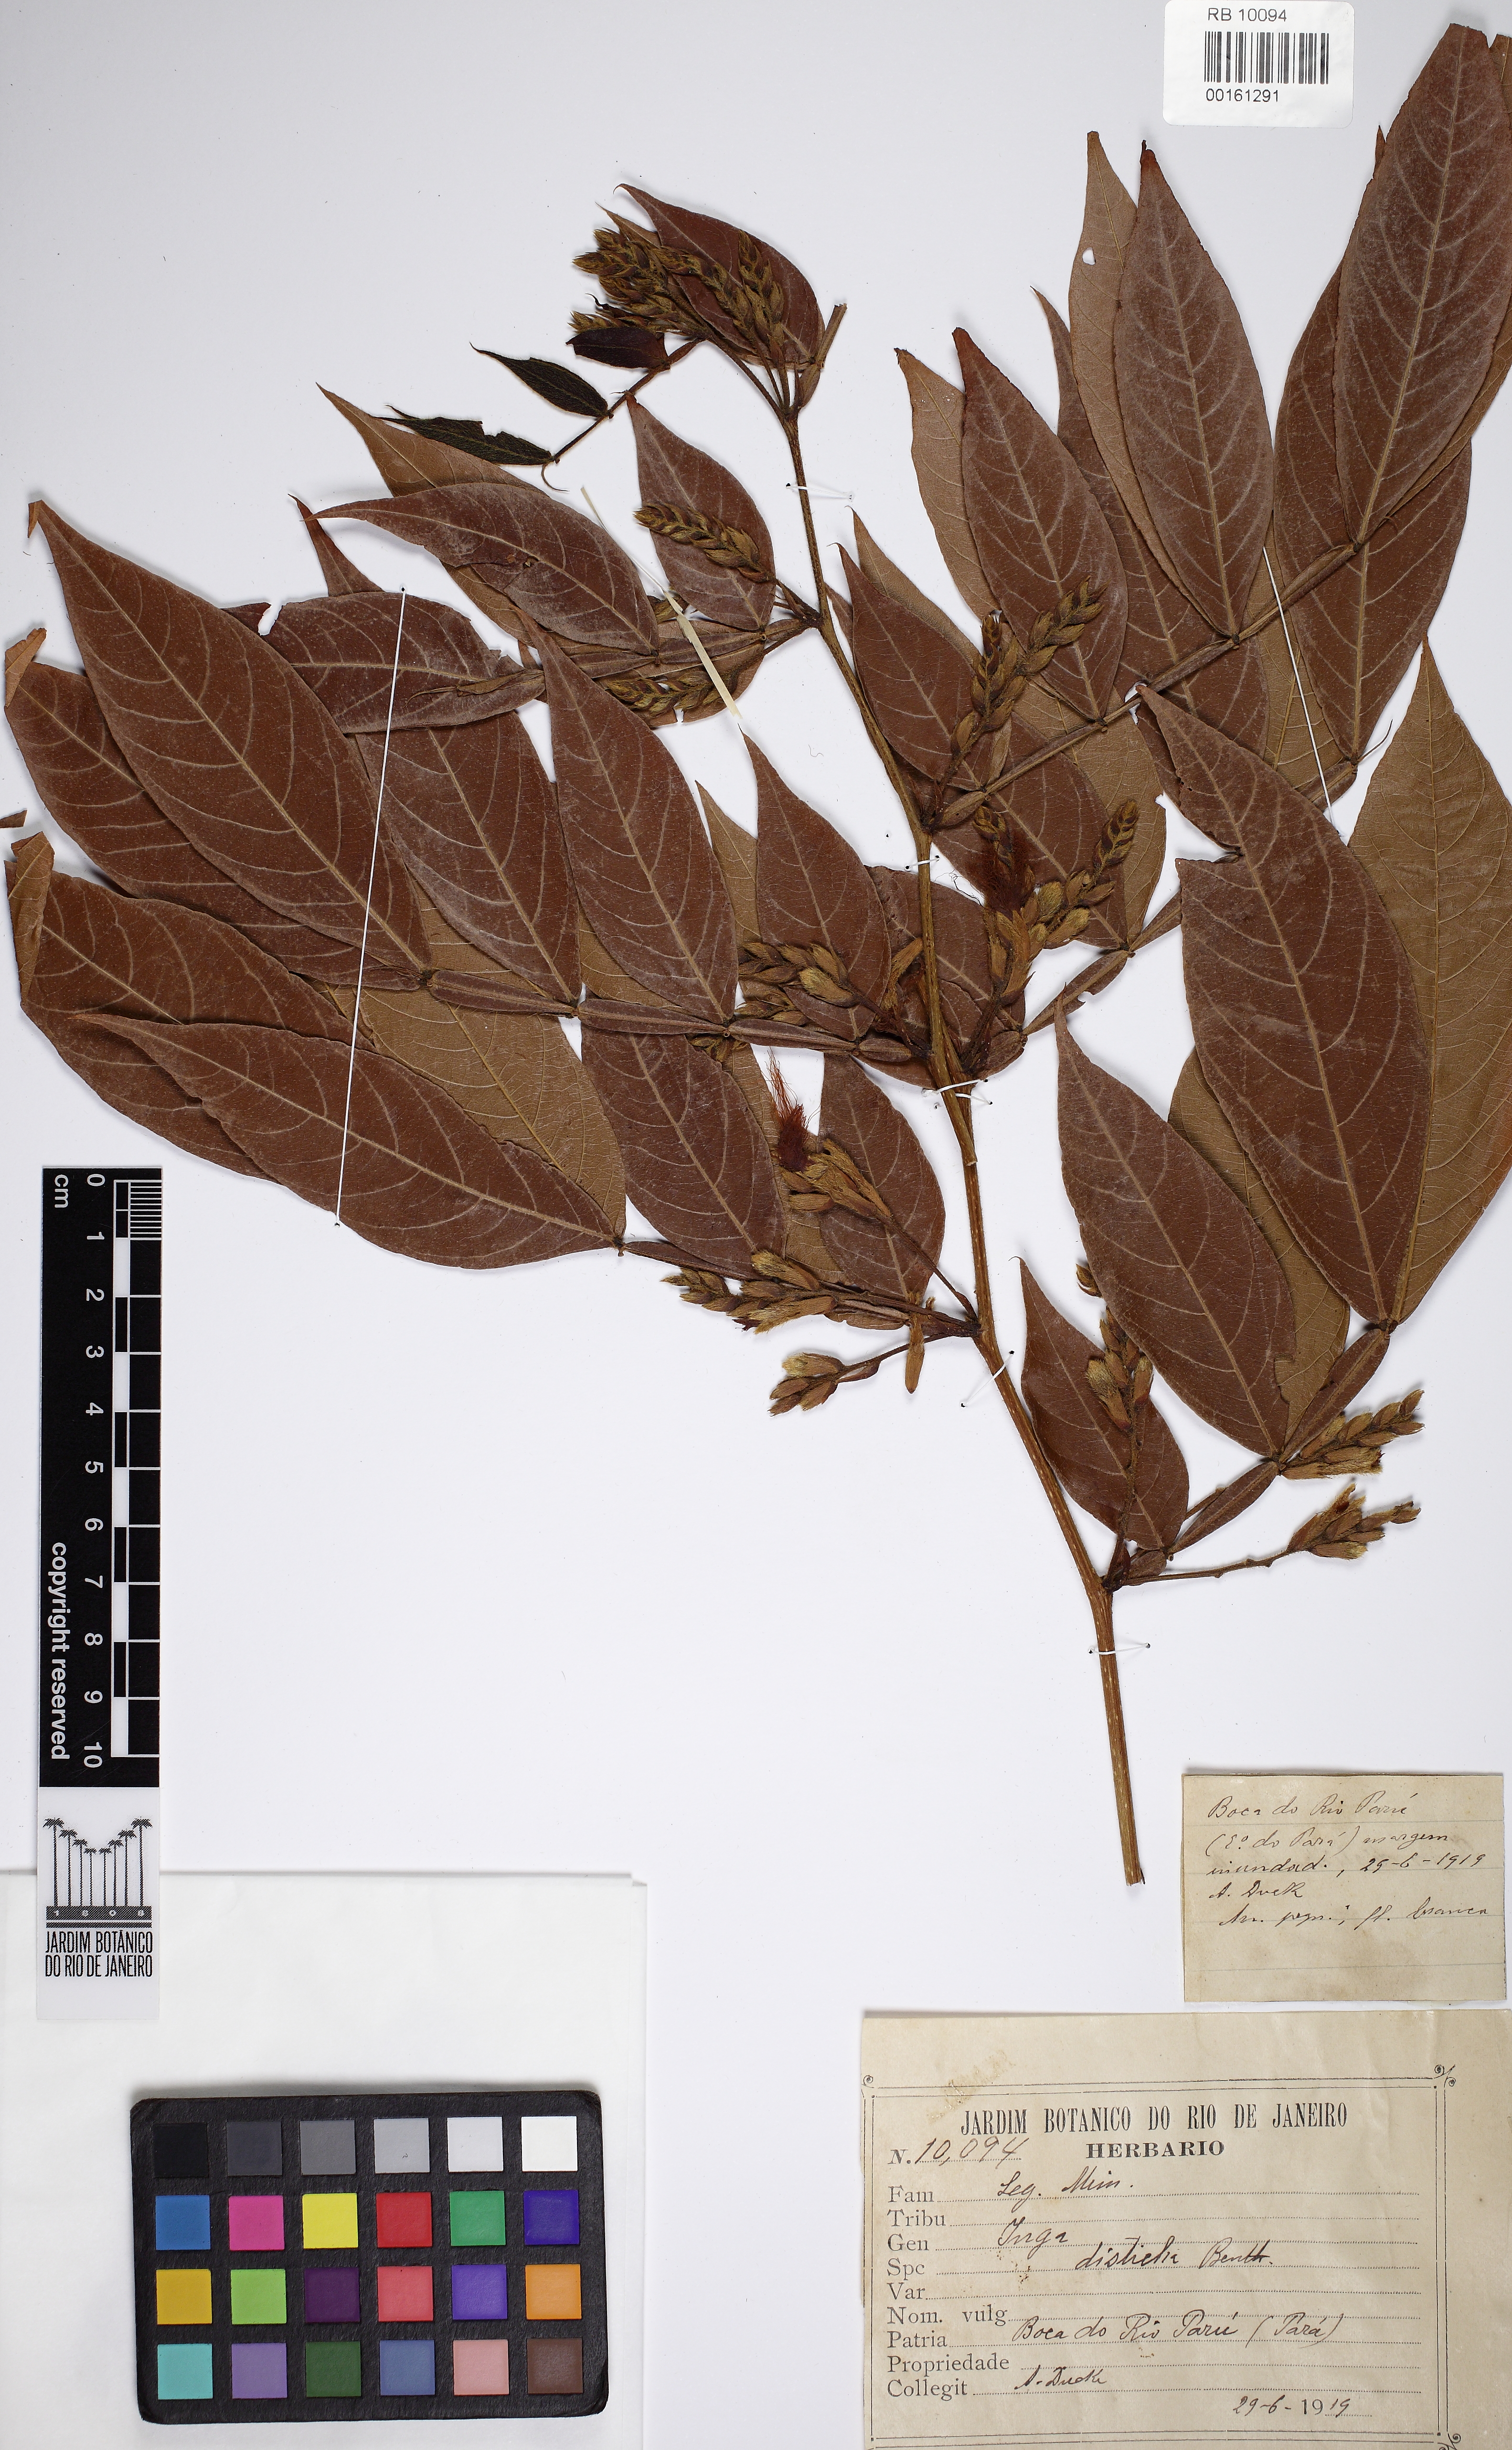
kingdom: Plantae
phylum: Tracheophyta
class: Magnoliopsida
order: Fabales
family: Fabaceae
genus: Inga
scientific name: Inga disticha
